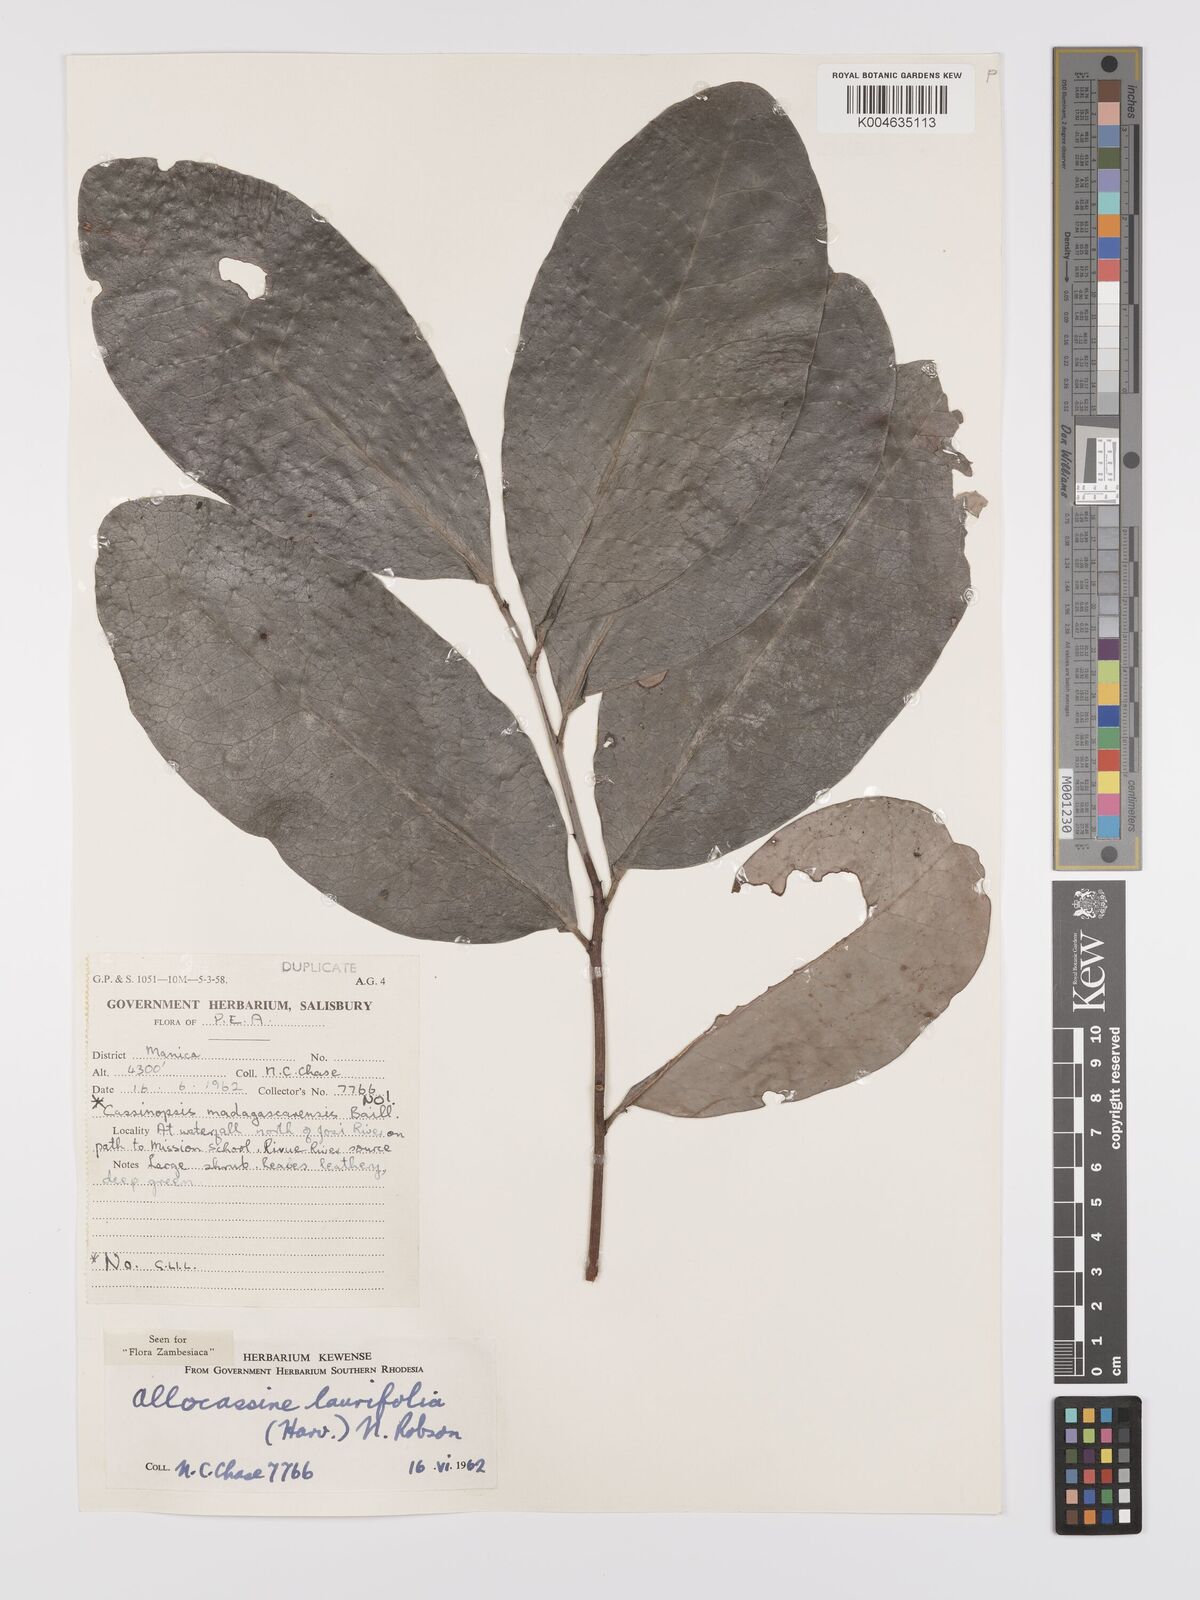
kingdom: Plantae
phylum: Tracheophyta
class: Magnoliopsida
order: Celastrales
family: Celastraceae
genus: Allocassine
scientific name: Allocassine laurifolia
